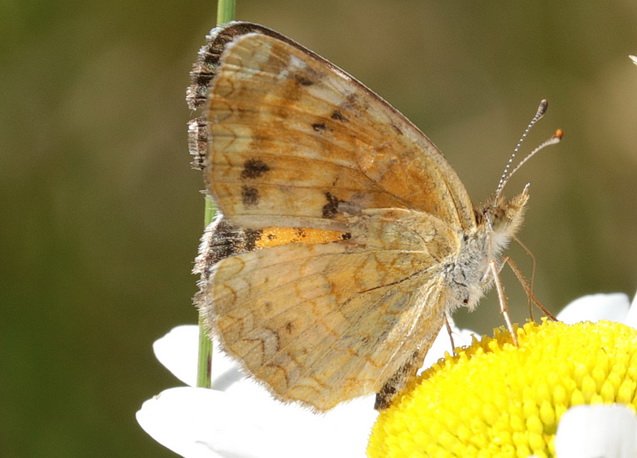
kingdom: Animalia
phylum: Arthropoda
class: Insecta
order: Lepidoptera
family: Nymphalidae
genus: Phyciodes
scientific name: Phyciodes batesii
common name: Tawny Crescent
